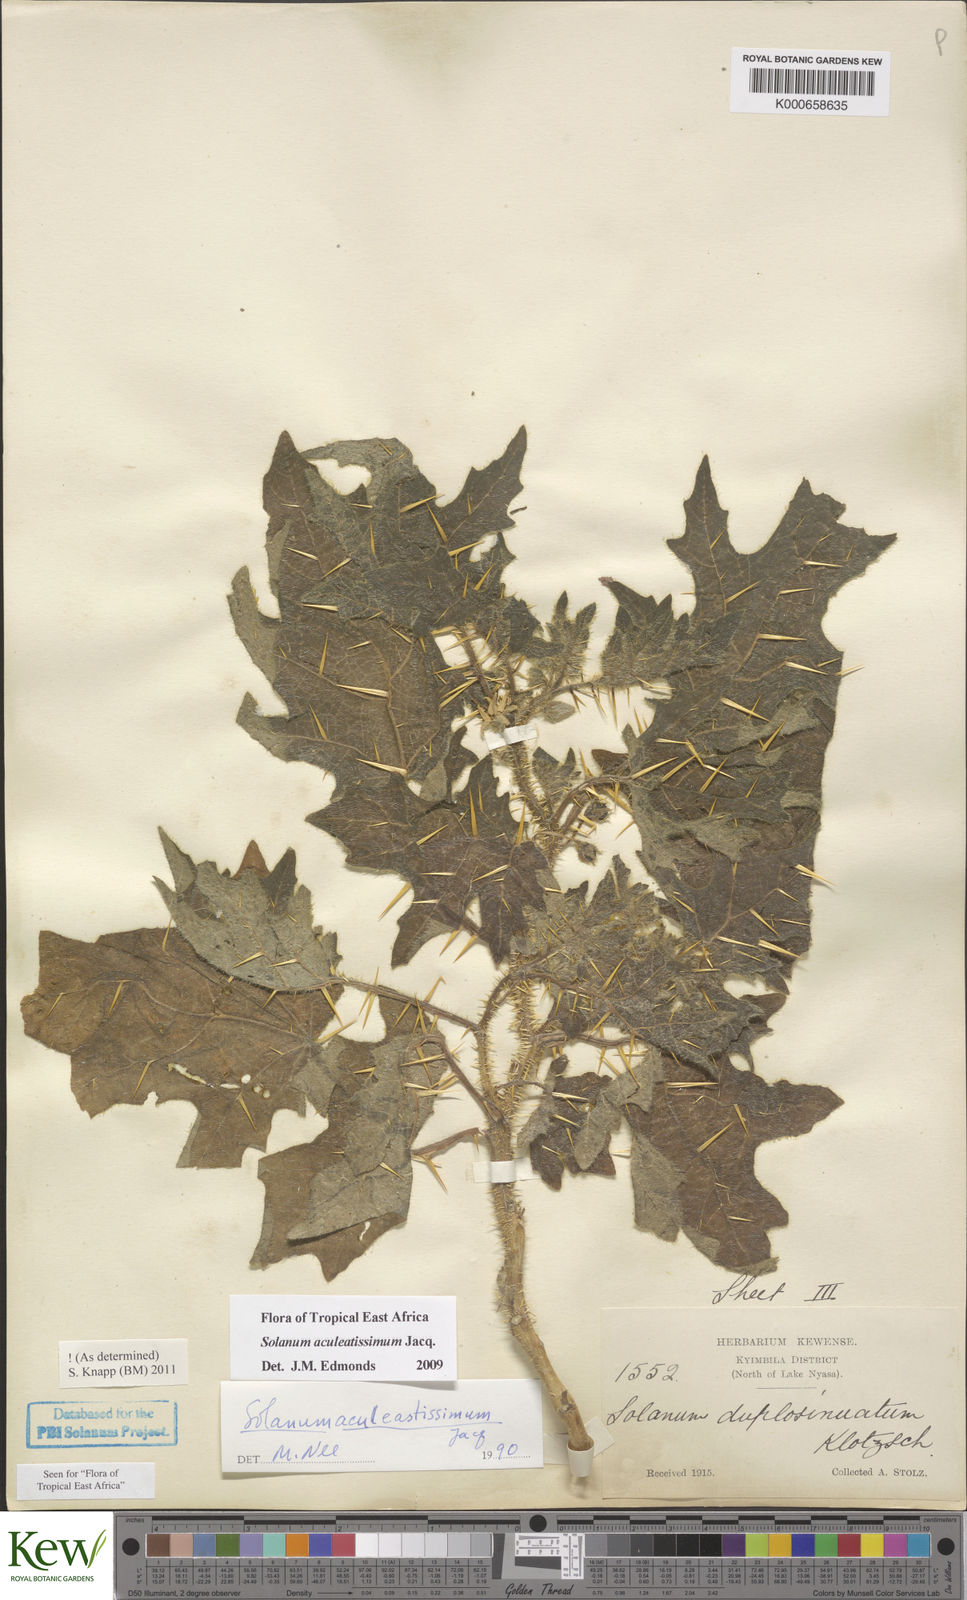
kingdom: Plantae
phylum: Tracheophyta
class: Magnoliopsida
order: Solanales
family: Solanaceae
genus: Solanum
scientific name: Solanum aculeatissimum
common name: Dutch eggplant
